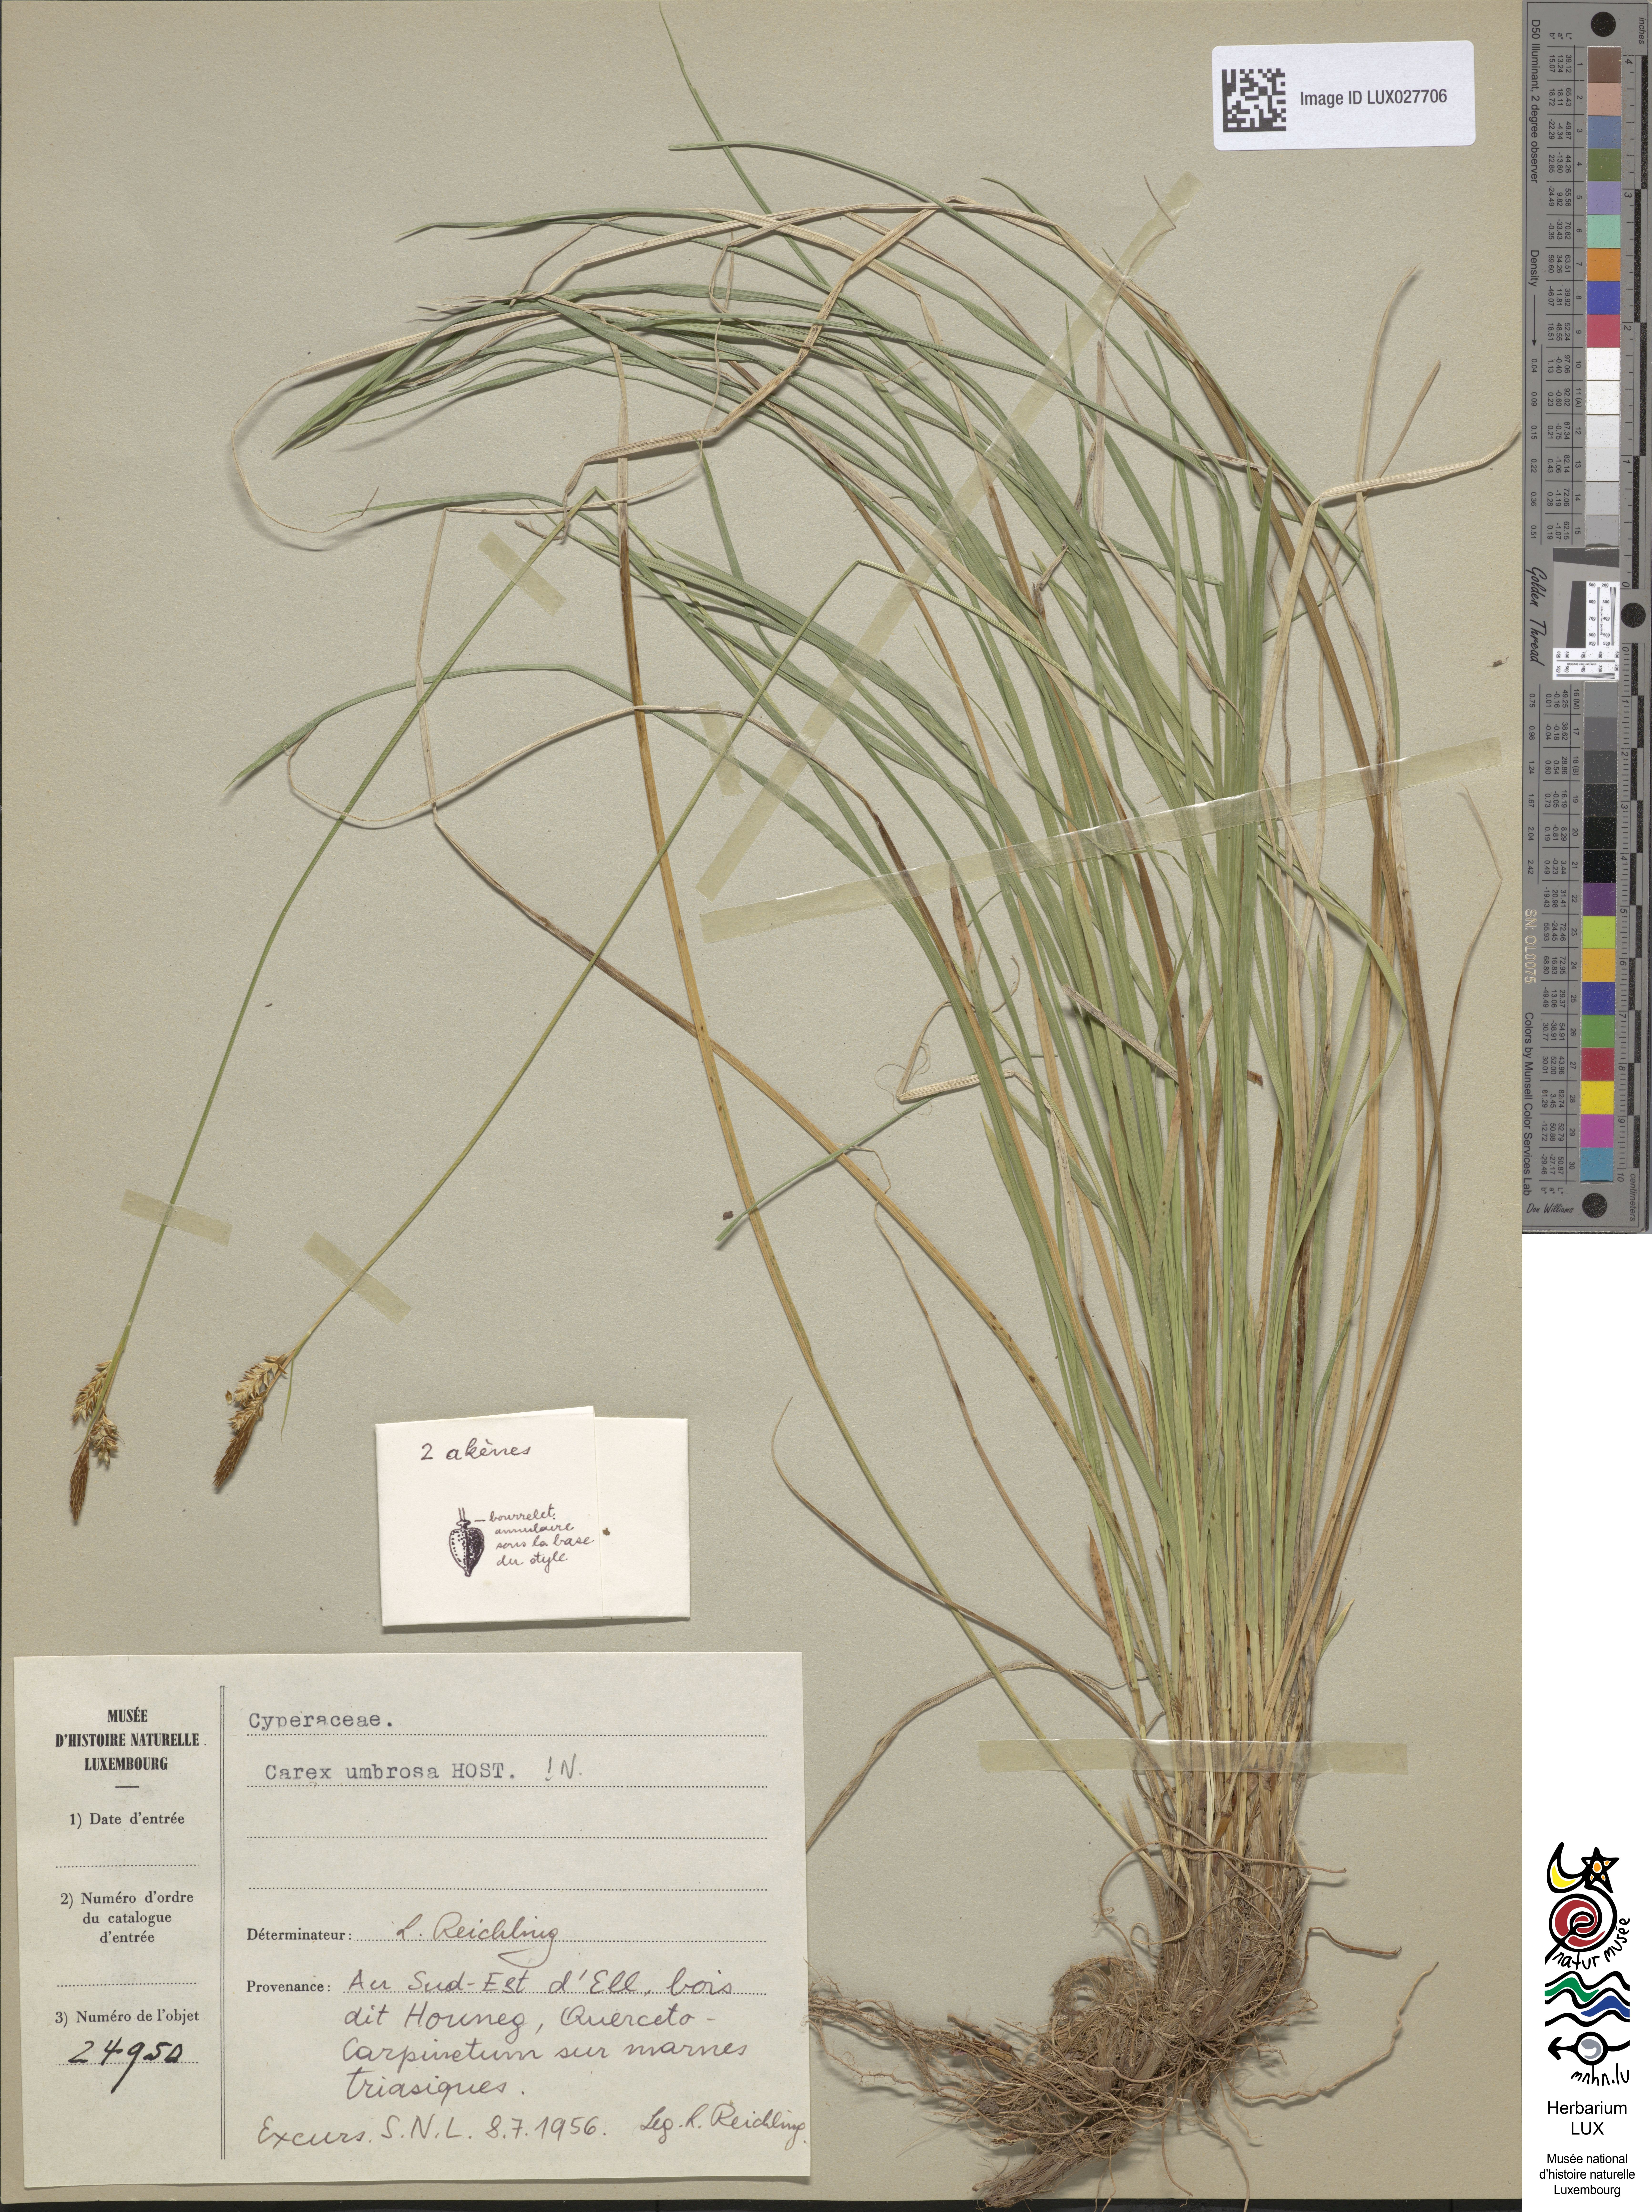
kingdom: Plantae
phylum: Tracheophyta
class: Liliopsida
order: Poales
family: Cyperaceae
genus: Carex
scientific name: Carex umbrosa
